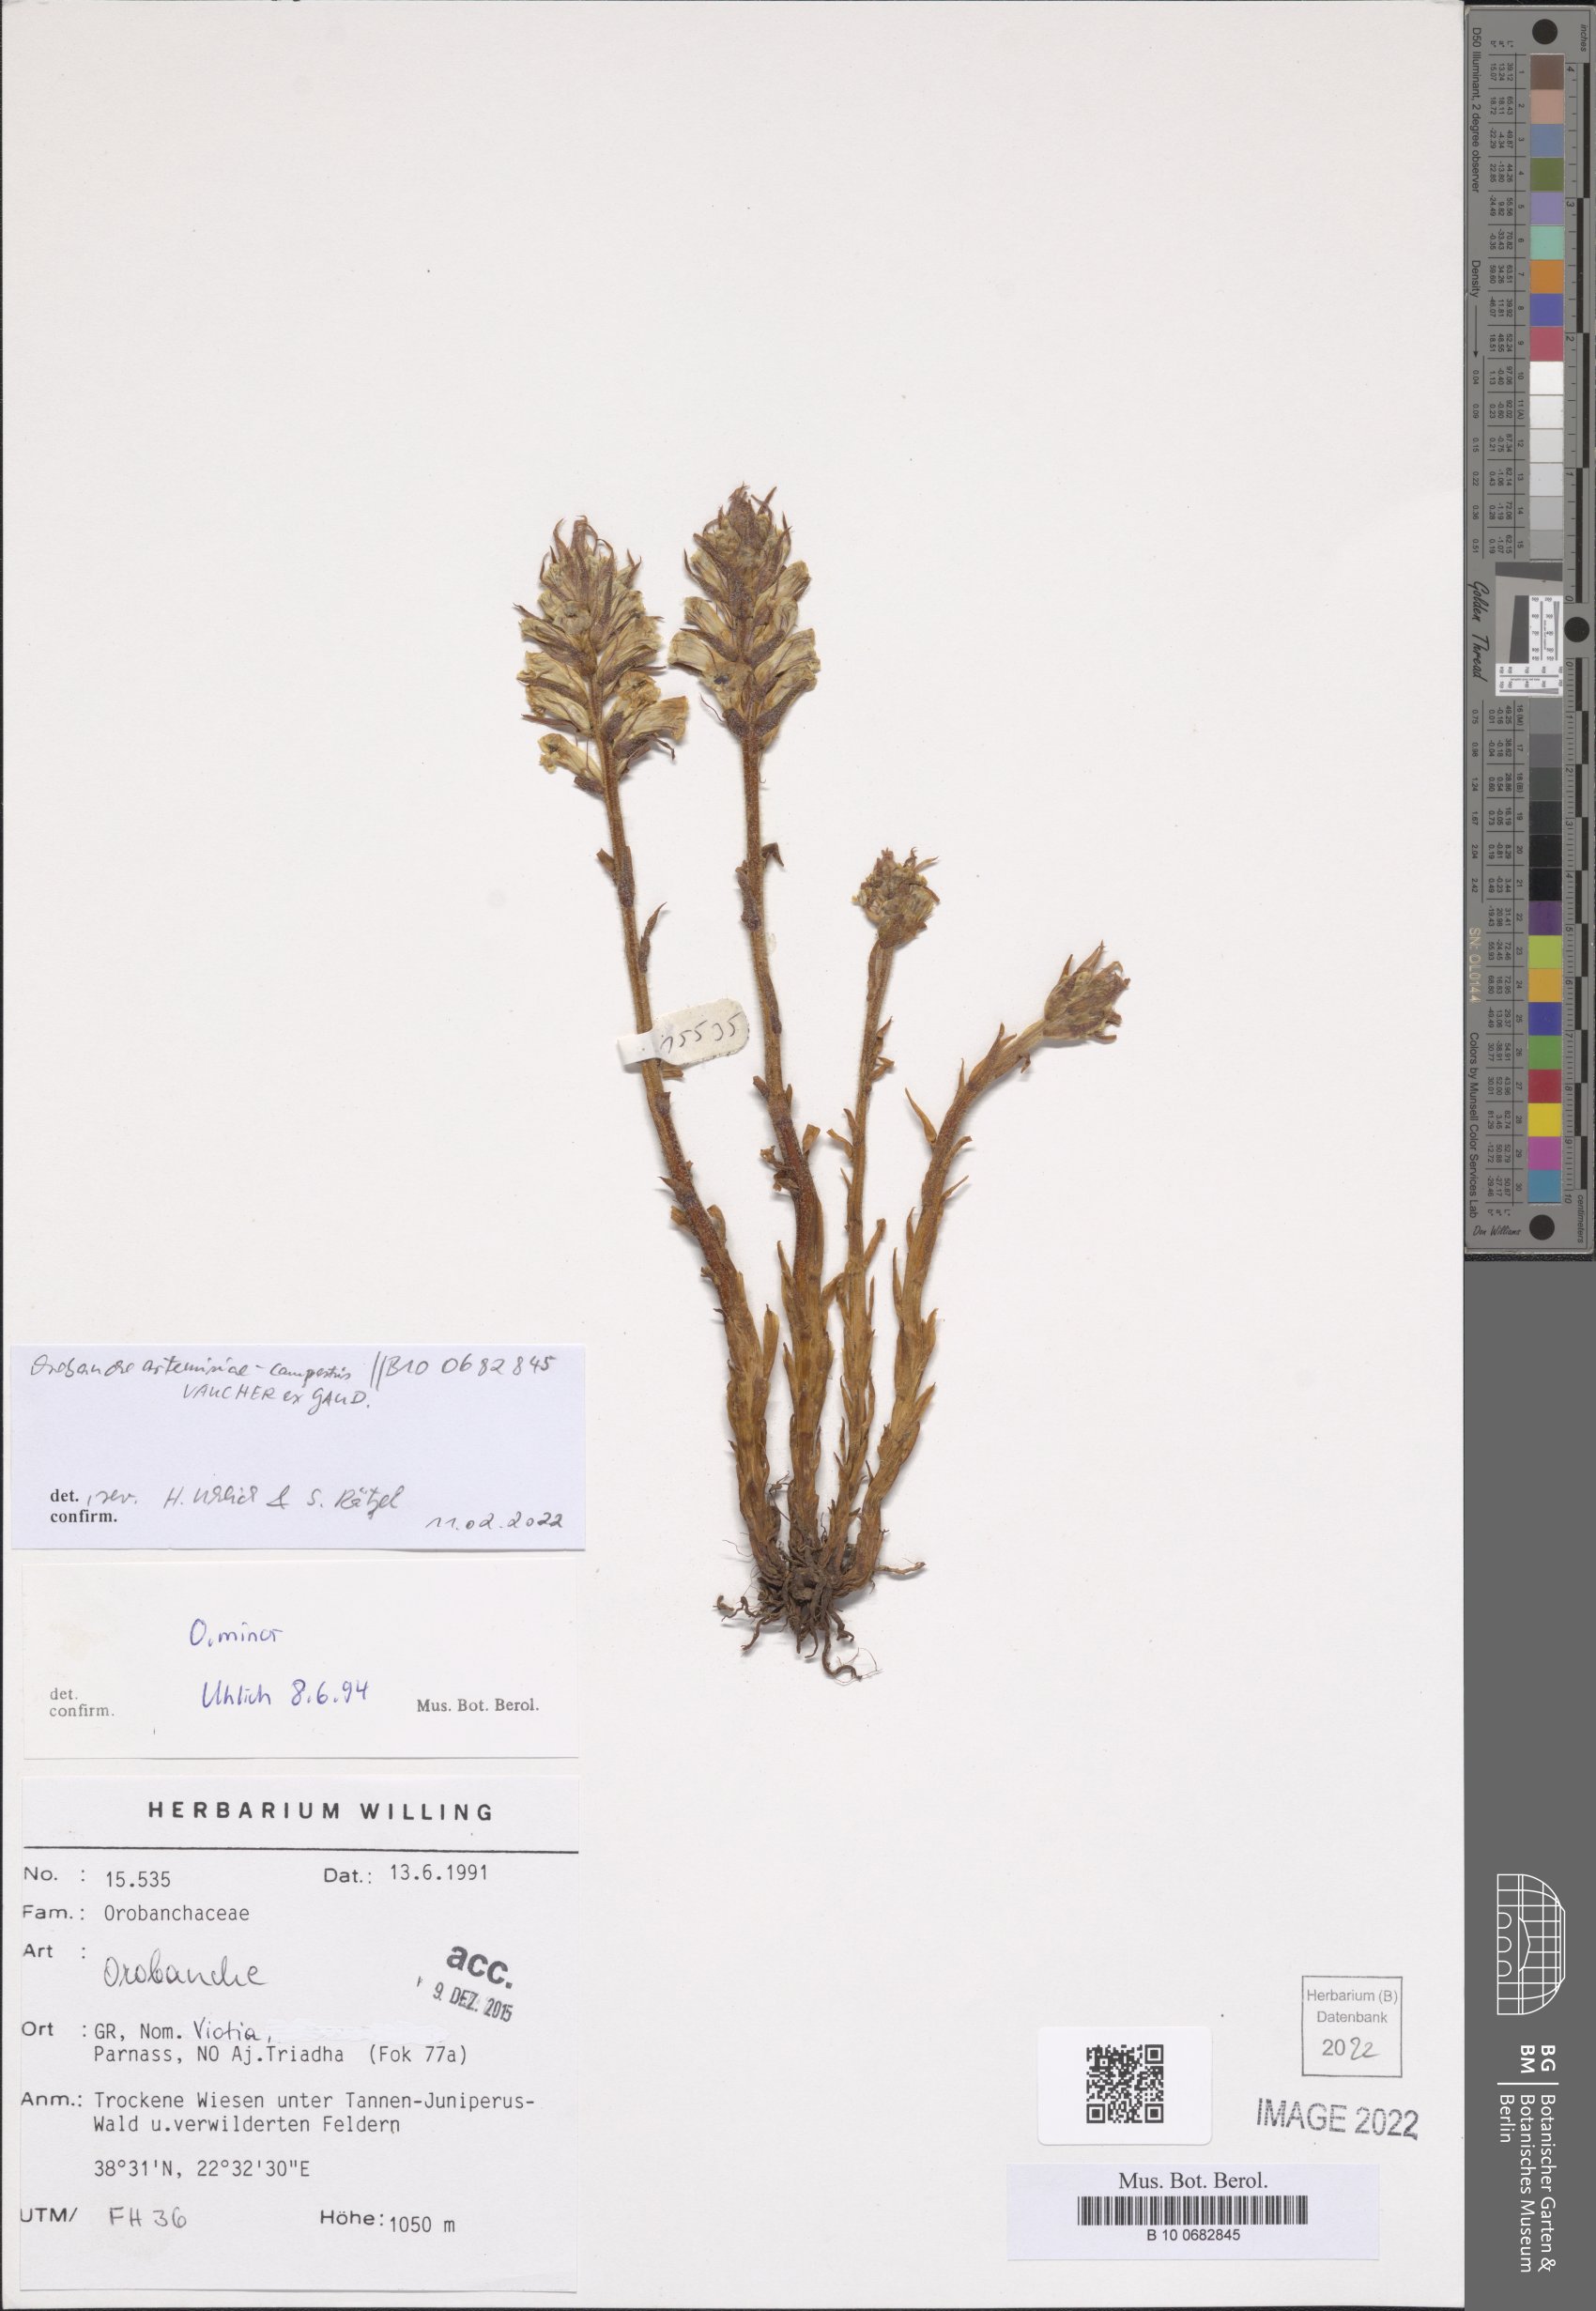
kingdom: Plantae
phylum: Tracheophyta
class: Magnoliopsida
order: Lamiales
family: Orobanchaceae
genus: Orobanche
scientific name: Orobanche artemisiae-campestris
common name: Oxtongue broomrape
